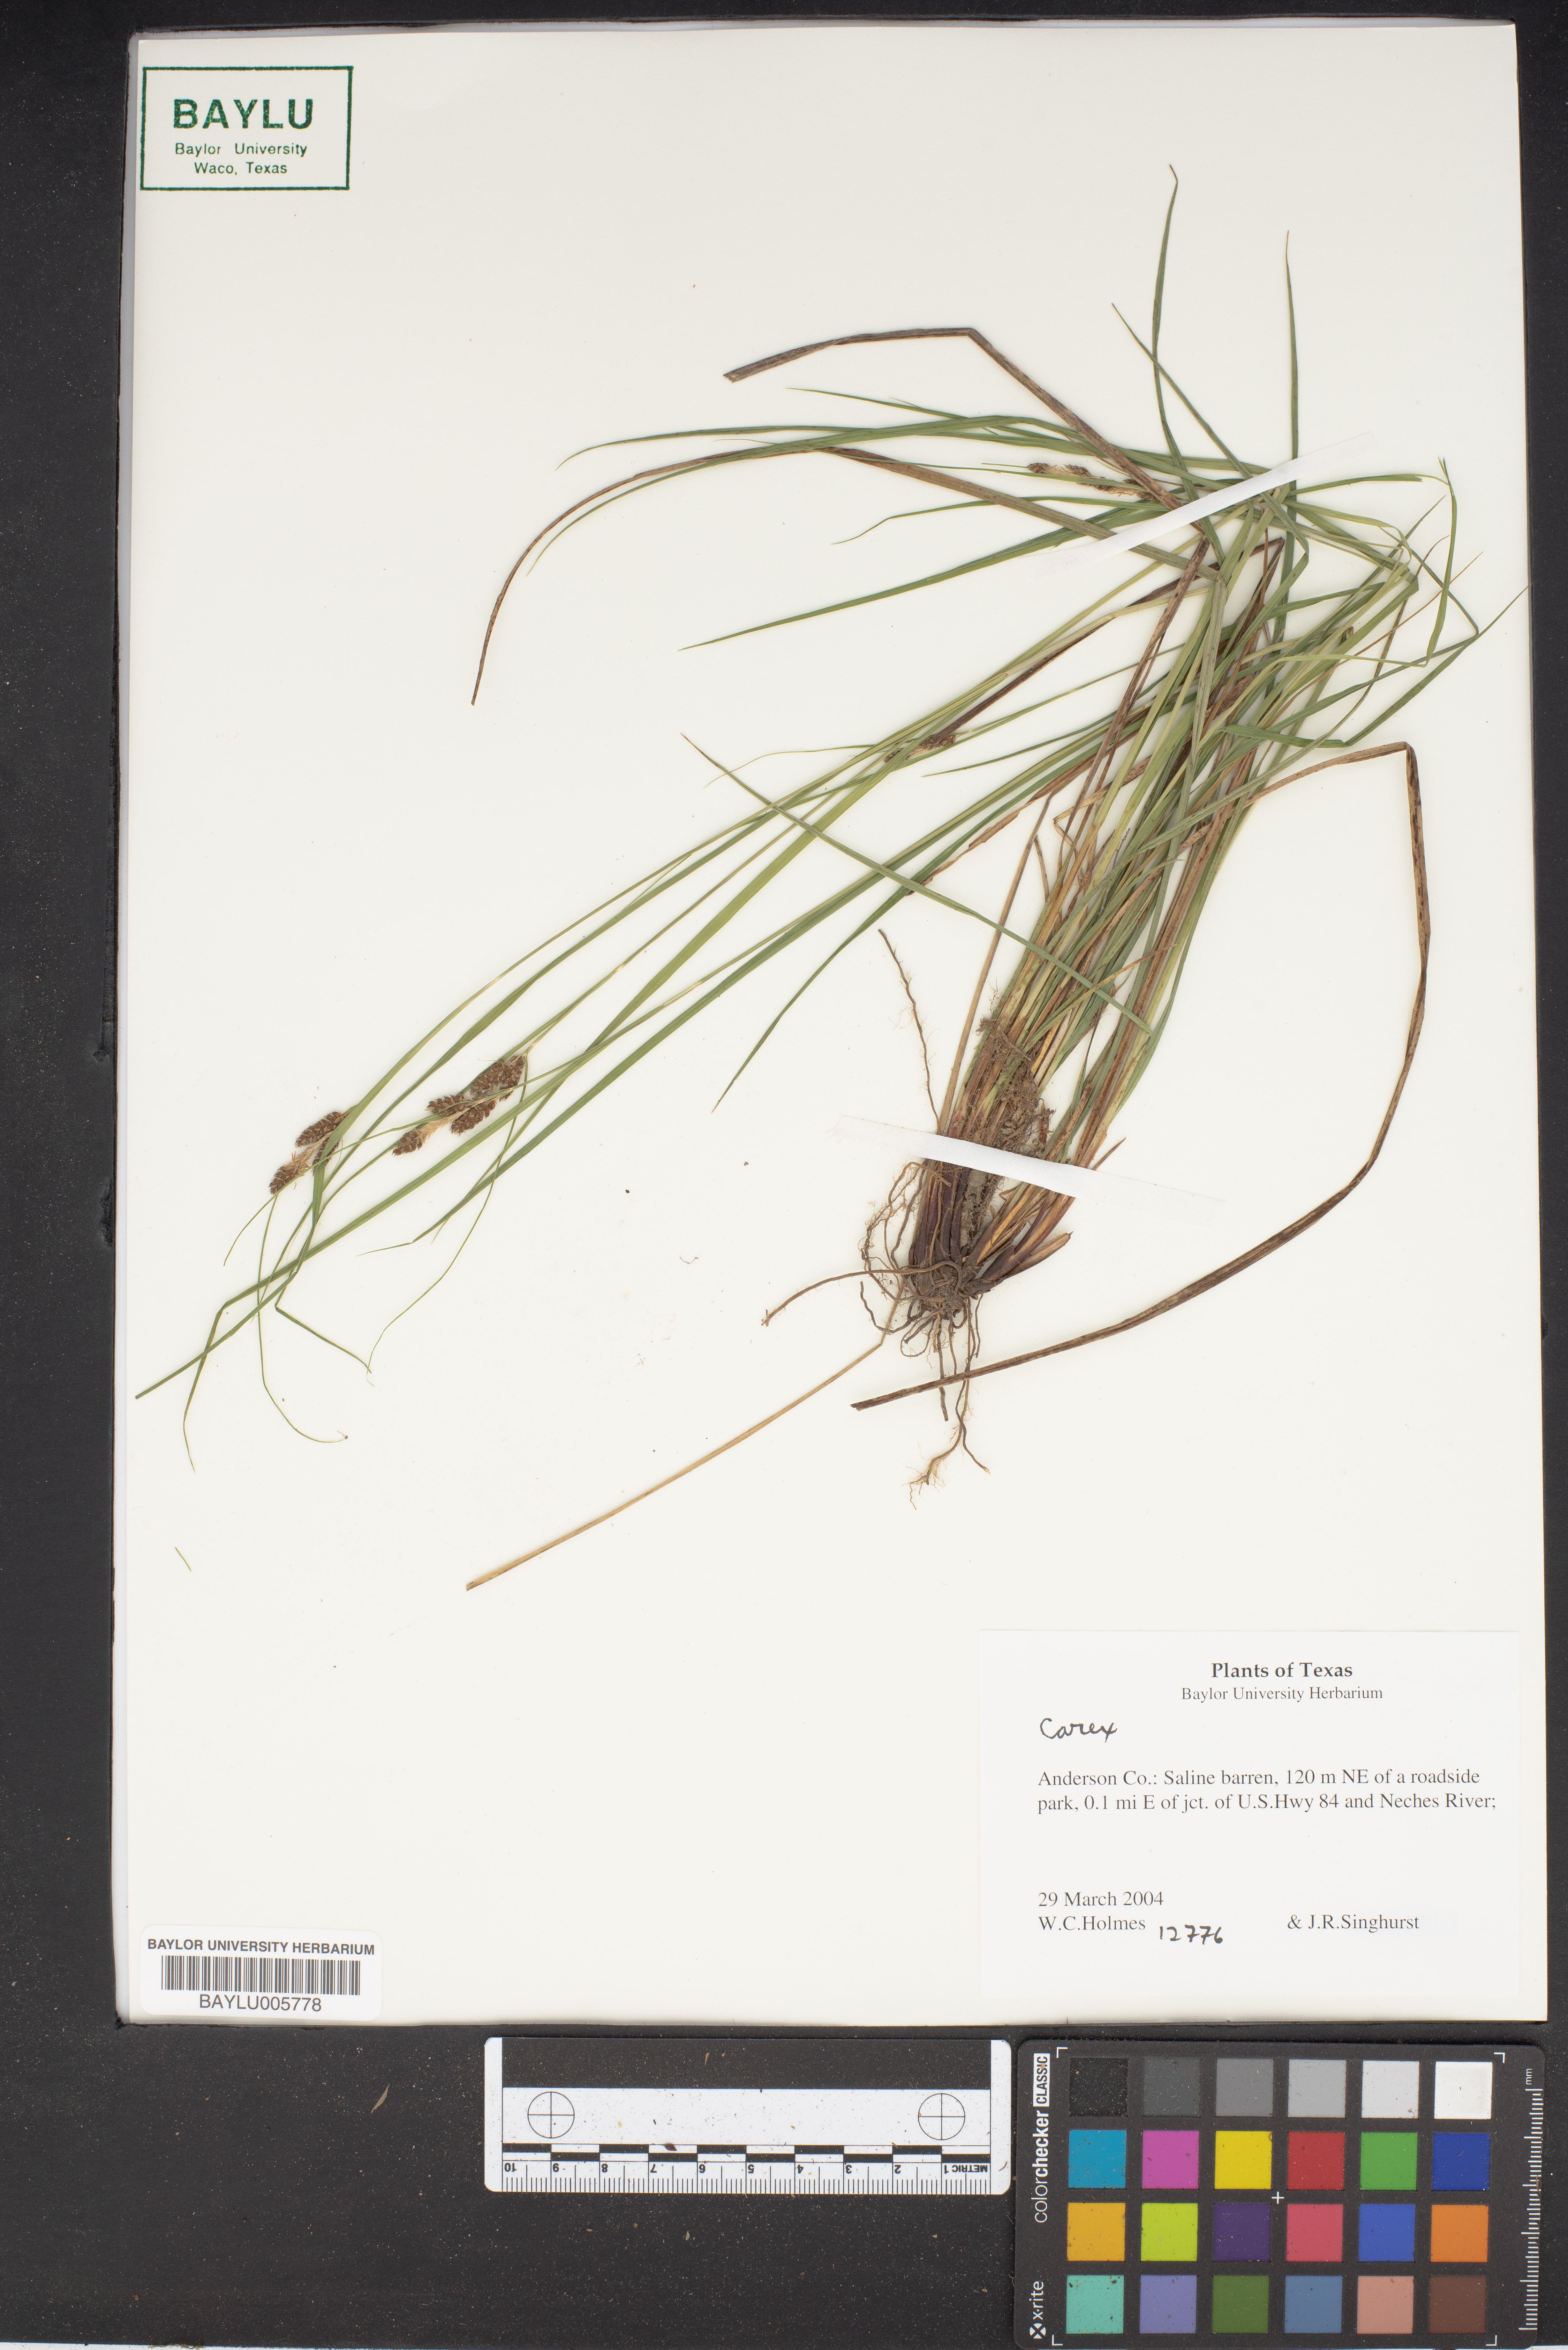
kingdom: Plantae
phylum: Tracheophyta
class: Liliopsida
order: Poales
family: Cyperaceae
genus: Carex
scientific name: Carex
